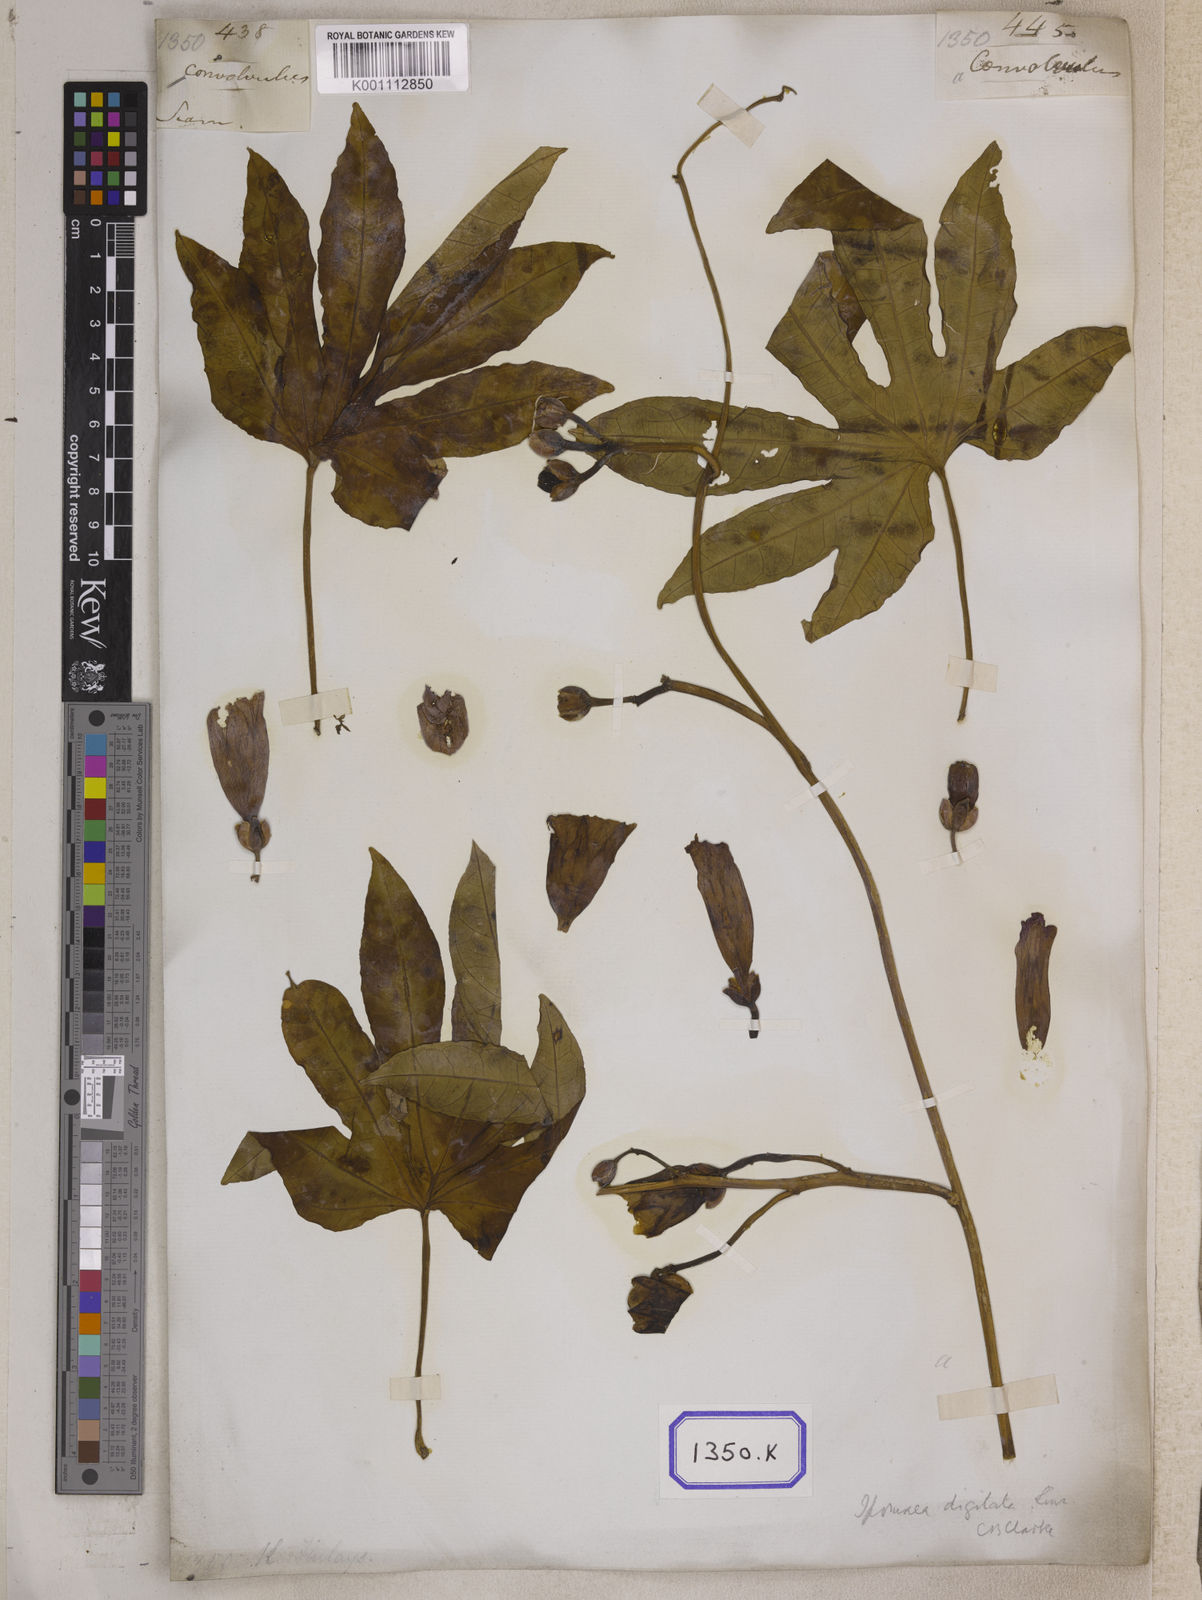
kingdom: Plantae
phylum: Tracheophyta
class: Magnoliopsida
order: Solanales
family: Convolvulaceae
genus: Ipomoea
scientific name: Ipomoea mauritiana
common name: Mauritanian convolvulus
